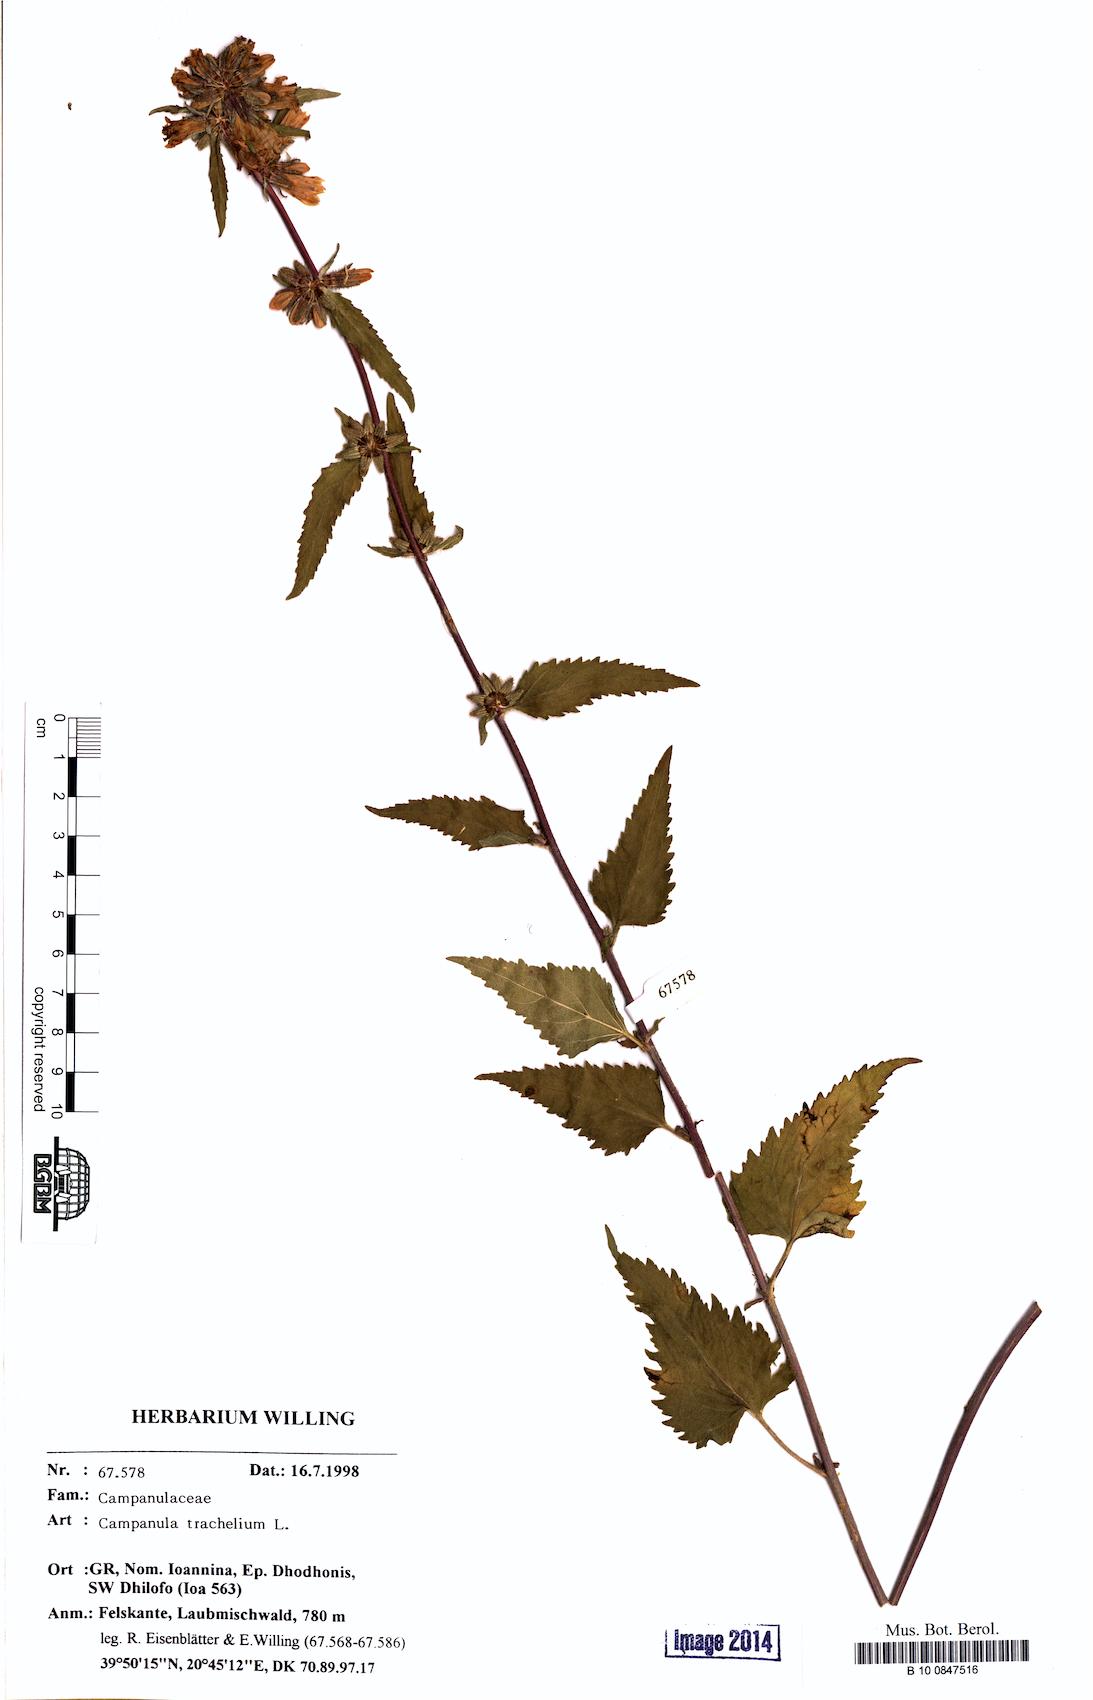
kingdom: Plantae
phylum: Tracheophyta
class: Magnoliopsida
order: Asterales
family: Campanulaceae
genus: Campanula
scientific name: Campanula trachelium
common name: Nettle-leaved bellflower
